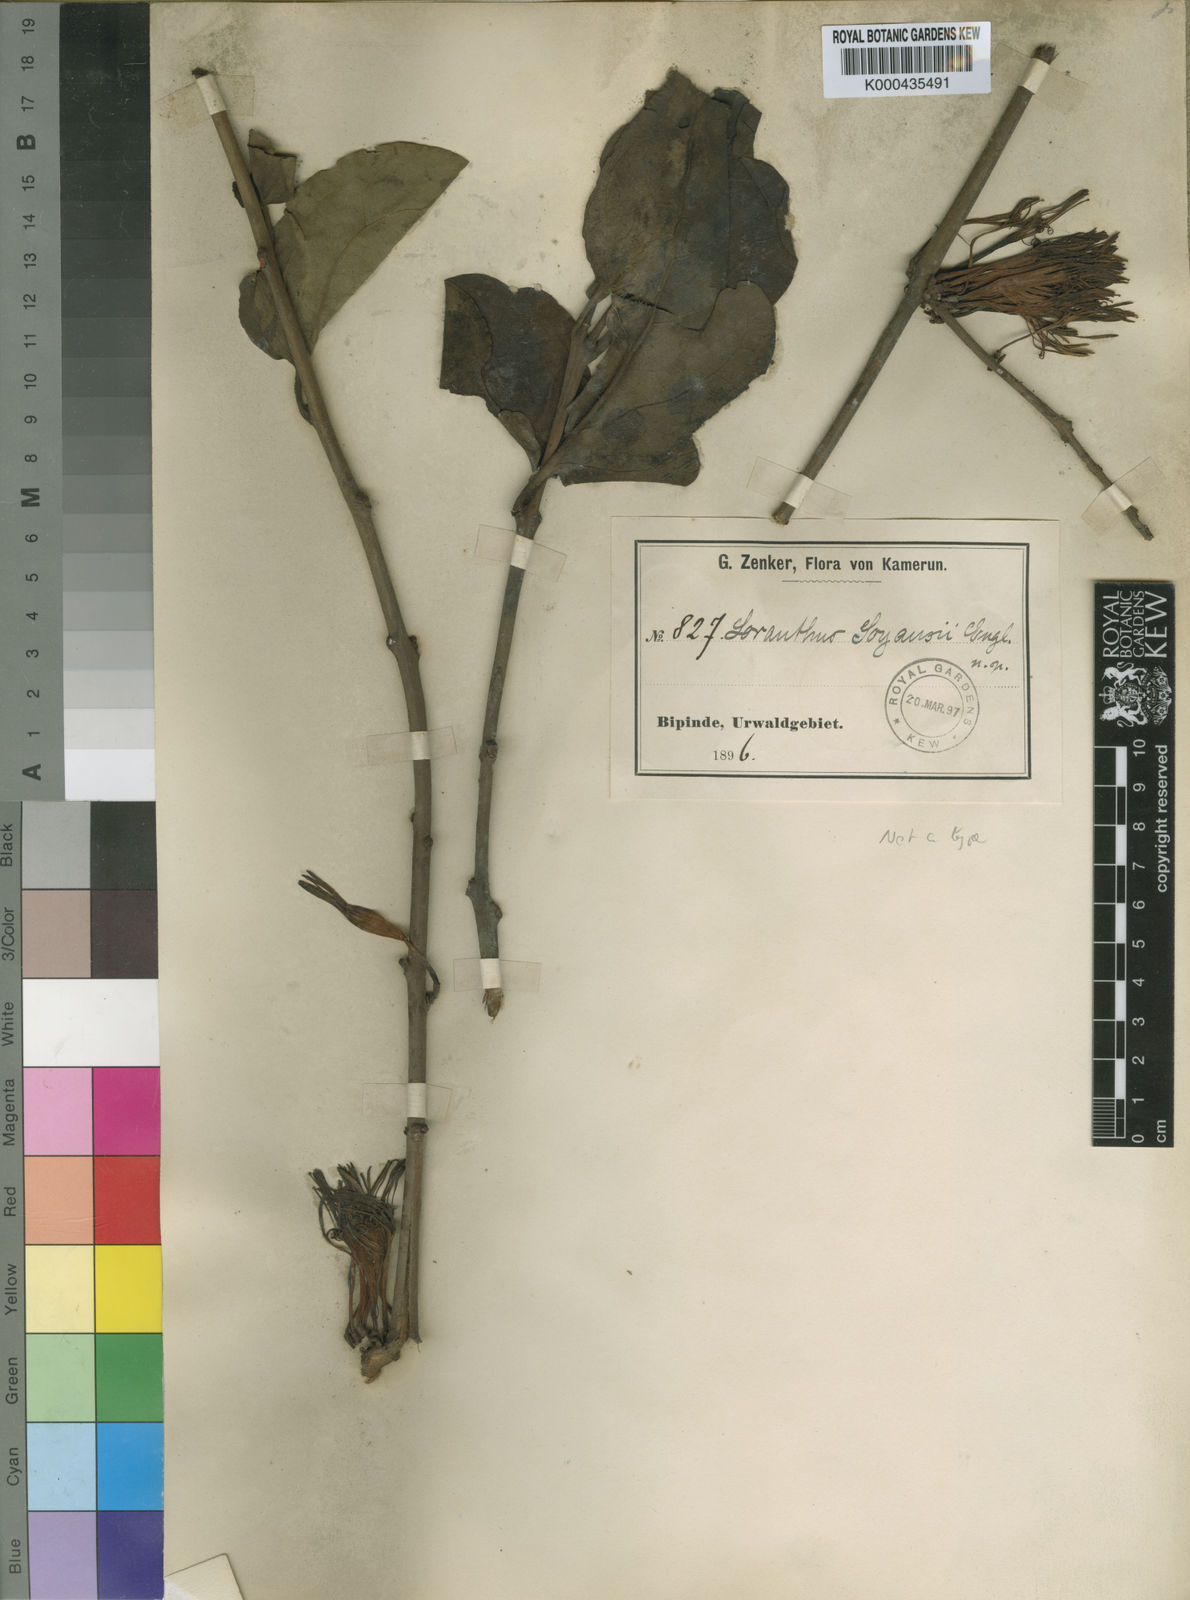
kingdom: Plantae
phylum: Tracheophyta
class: Magnoliopsida
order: Santalales
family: Loranthaceae
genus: Phragmanthera
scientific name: Phragmanthera capitata
